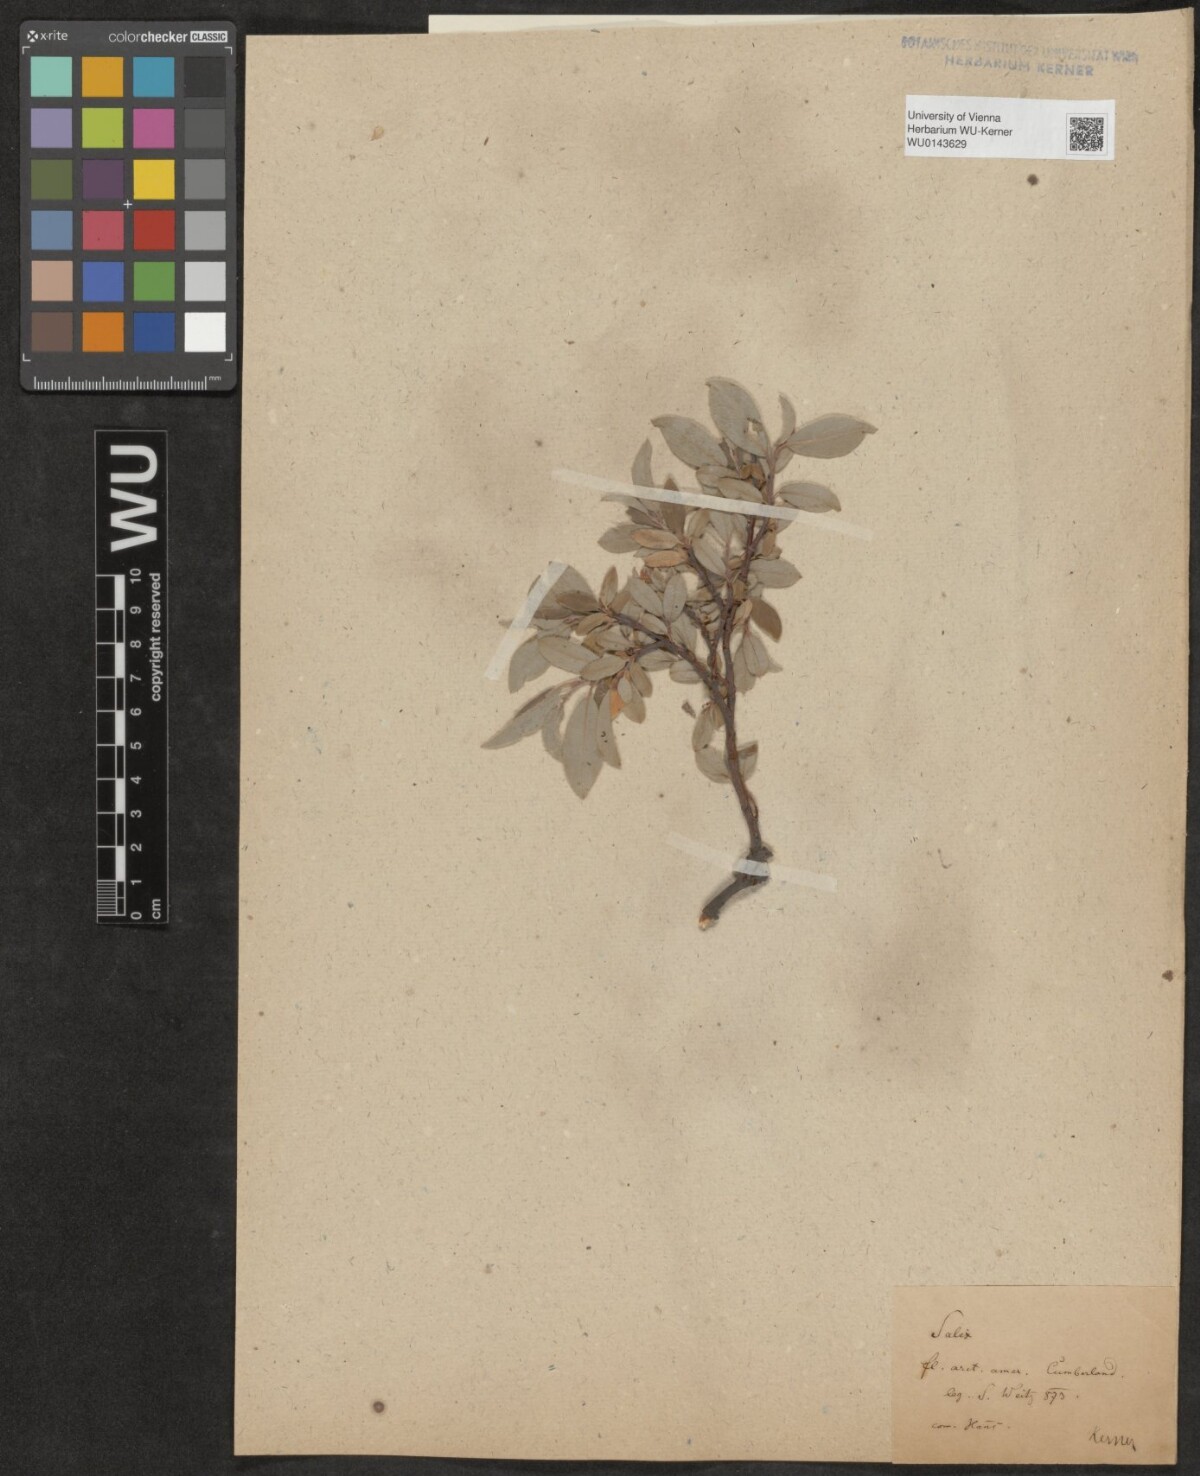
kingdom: Plantae
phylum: Tracheophyta
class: Magnoliopsida
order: Malpighiales
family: Salicaceae
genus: Salix
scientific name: Salix
